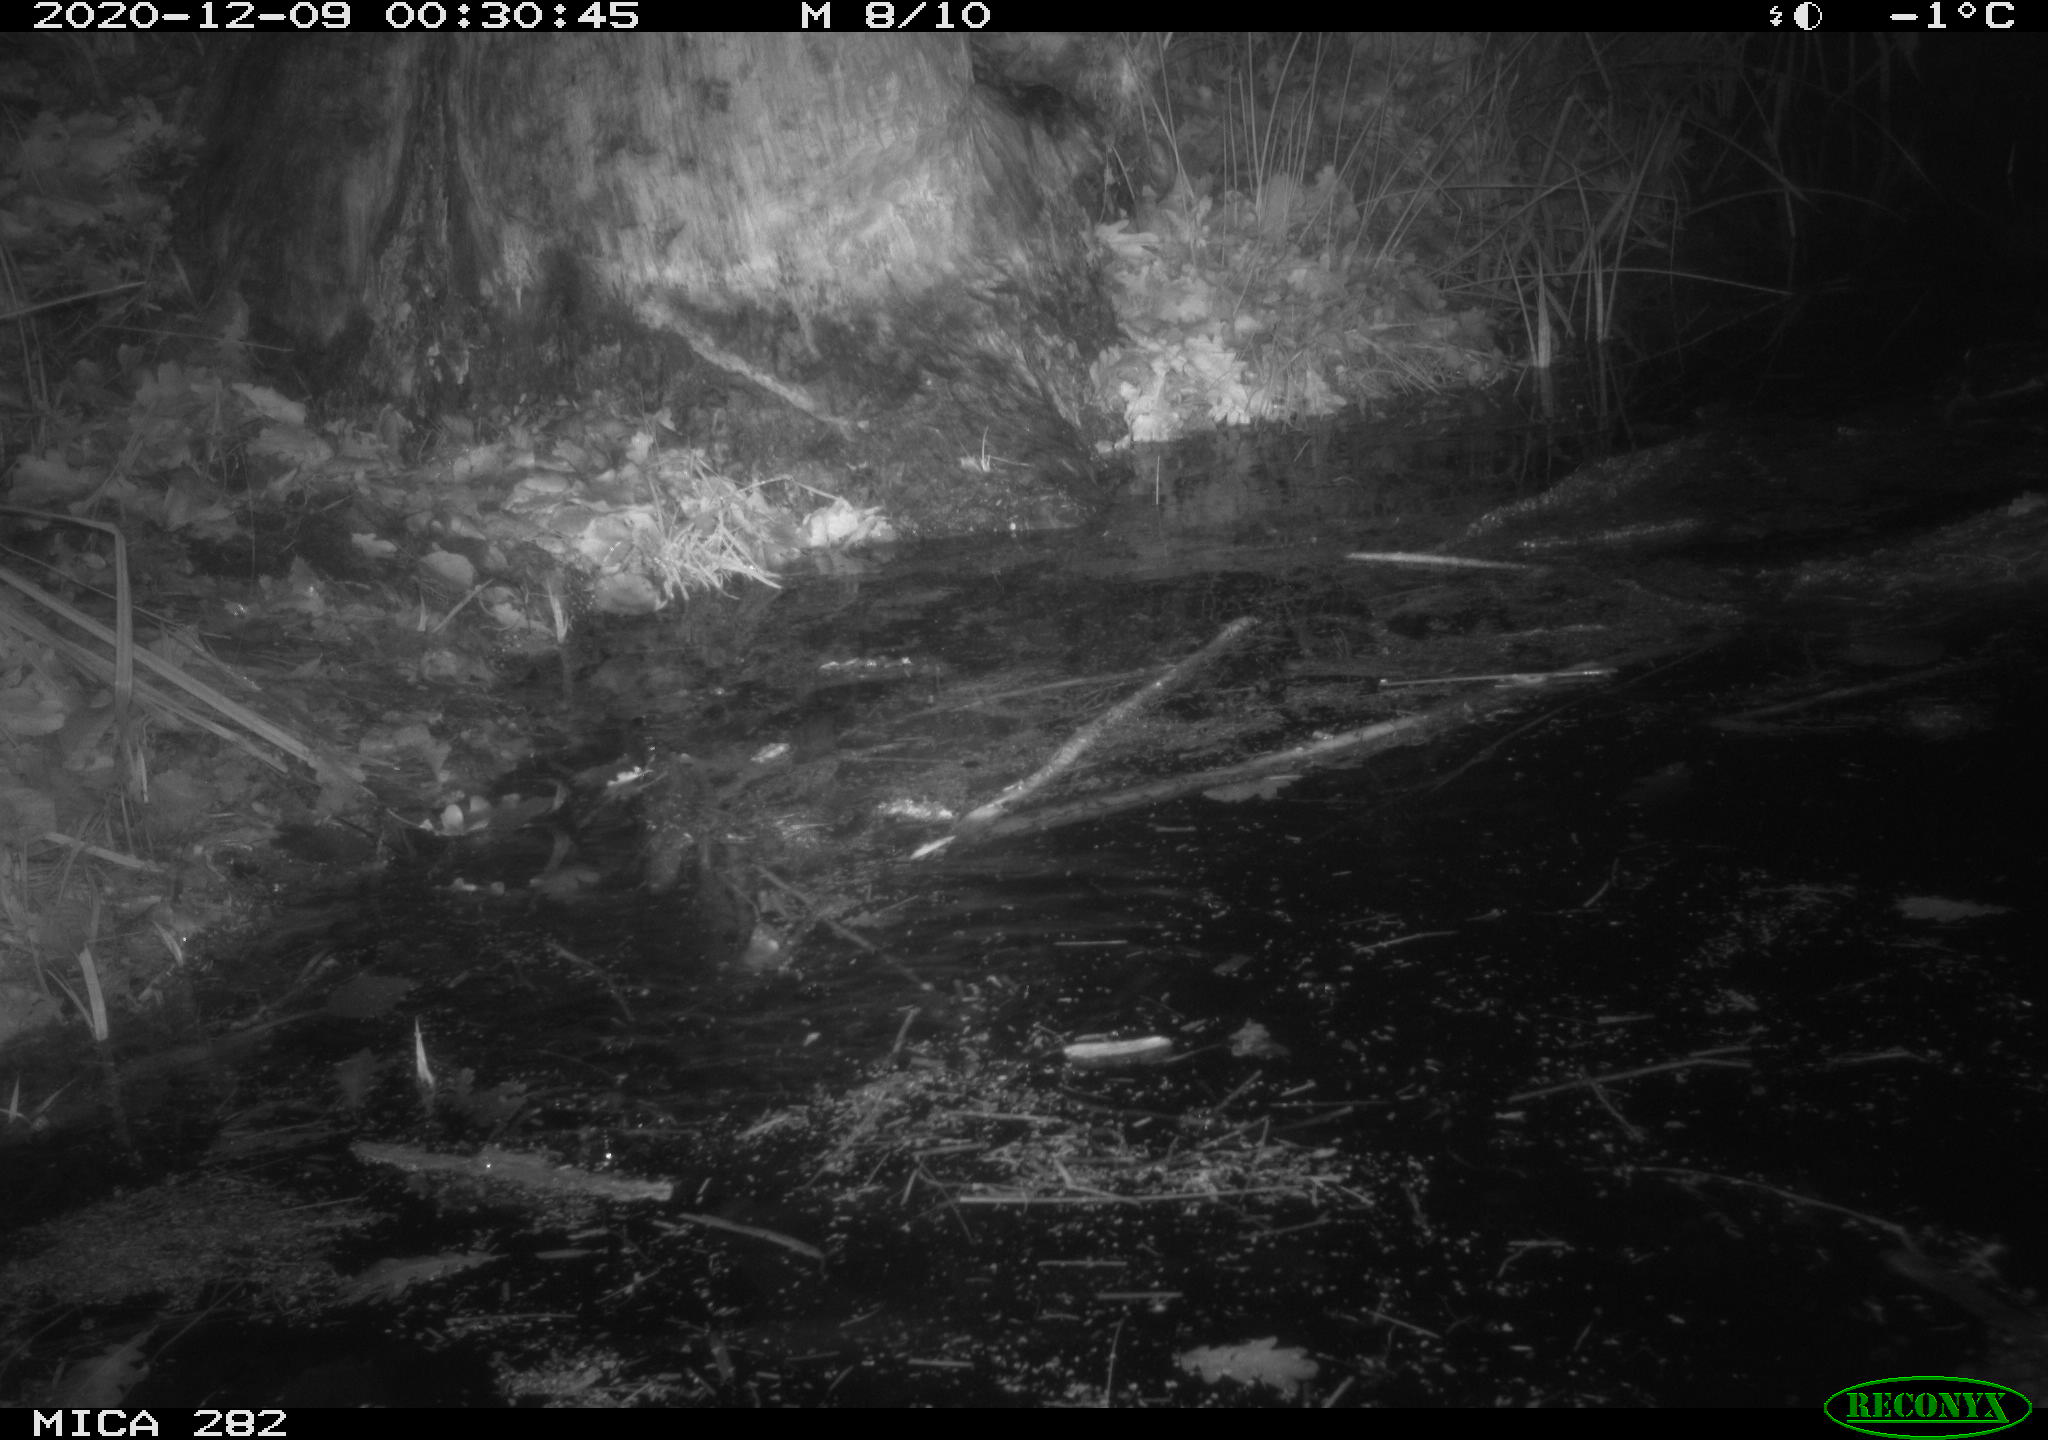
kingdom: Animalia
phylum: Chordata
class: Mammalia
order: Rodentia
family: Castoridae
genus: Castor
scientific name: Castor fiber
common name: Eurasian beaver
